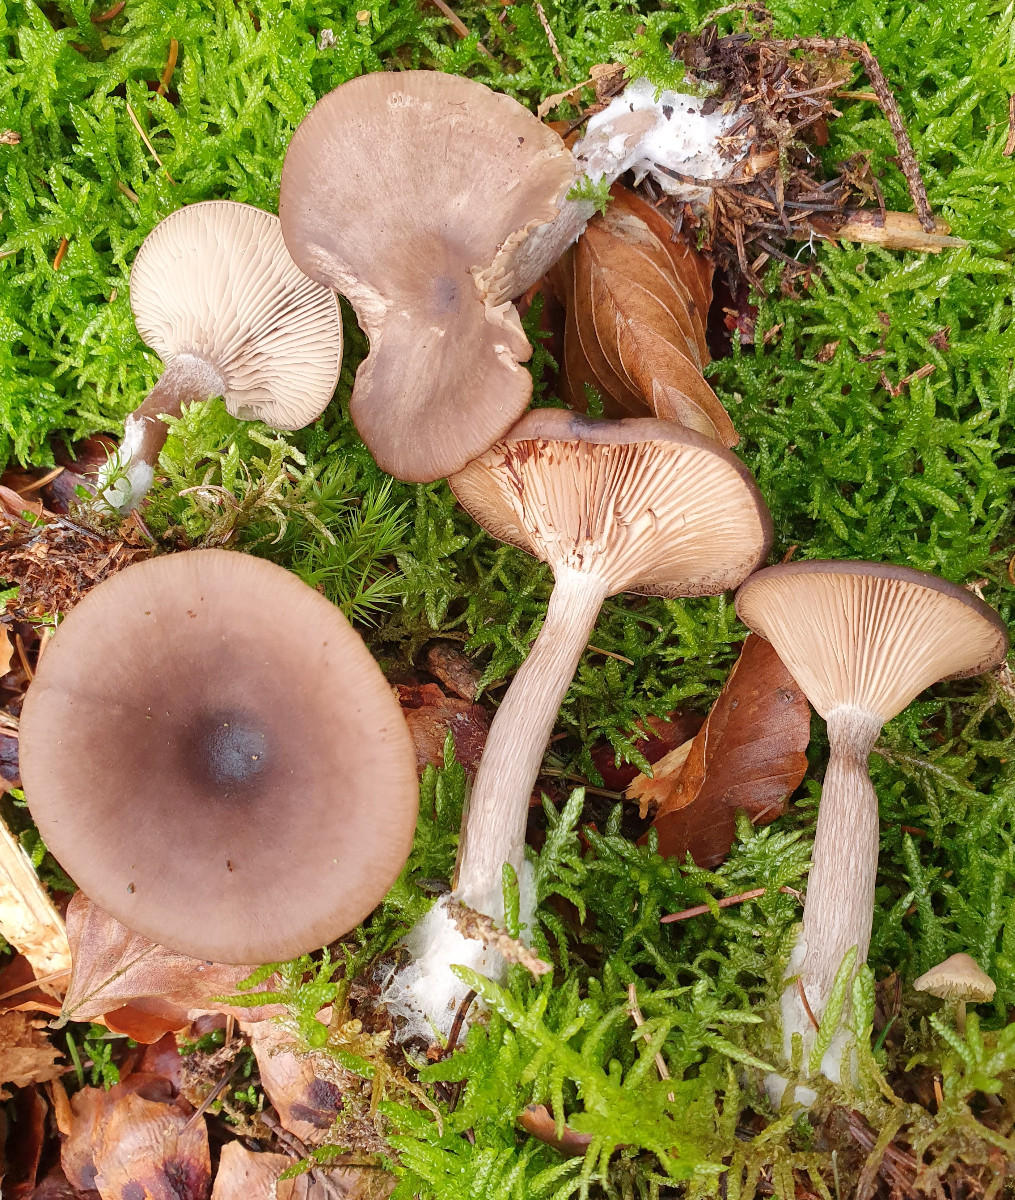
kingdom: Fungi
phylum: Basidiomycota
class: Agaricomycetes
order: Agaricales
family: Pseudoclitocybaceae
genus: Pseudoclitocybe
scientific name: Pseudoclitocybe cyathiformis
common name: almindelig bægertragthat
